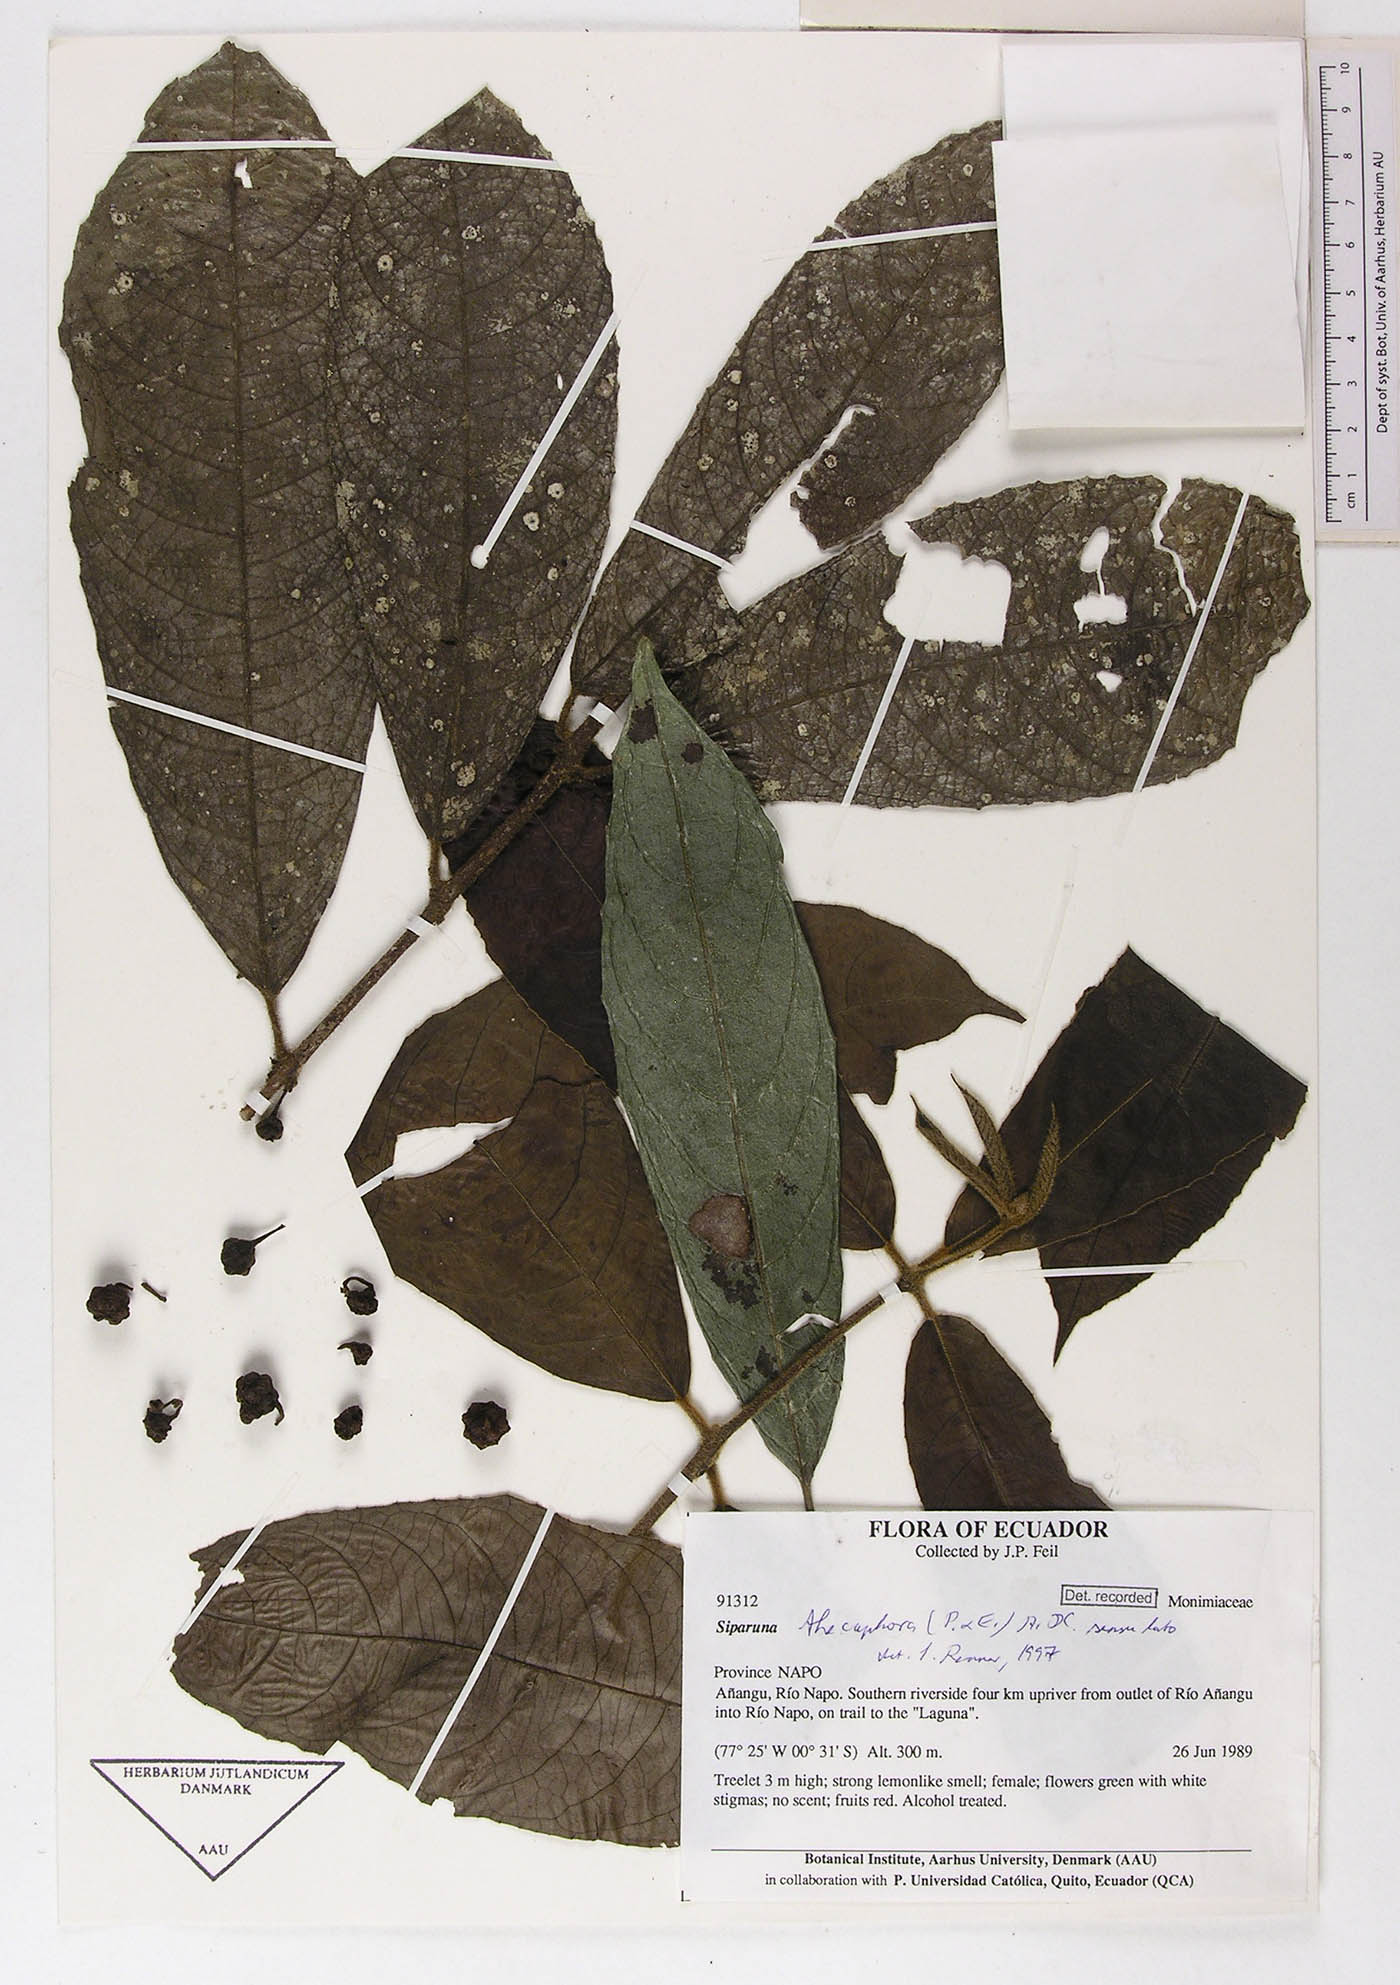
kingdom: Plantae
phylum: Tracheophyta
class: Magnoliopsida
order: Laurales
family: Siparunaceae
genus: Siparuna
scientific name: Siparuna thecaphora
